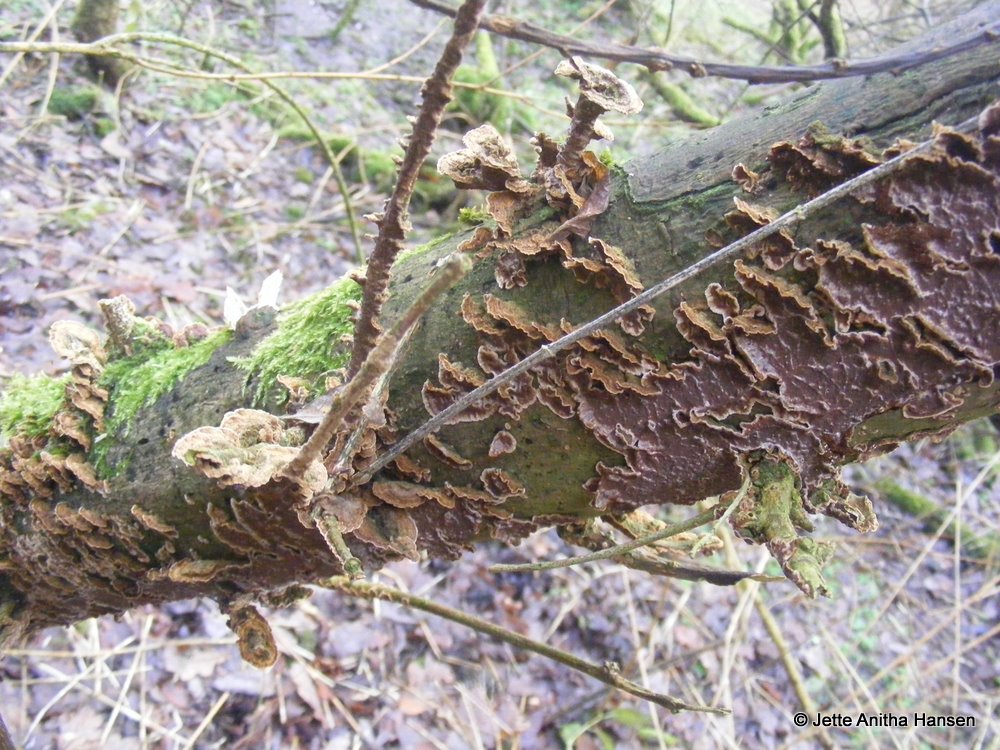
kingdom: Fungi
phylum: Basidiomycota
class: Agaricomycetes
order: Hymenochaetales
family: Hymenochaetaceae
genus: Hydnoporia
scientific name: Hydnoporia tabacina
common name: tobaksbrun ruslædersvamp
